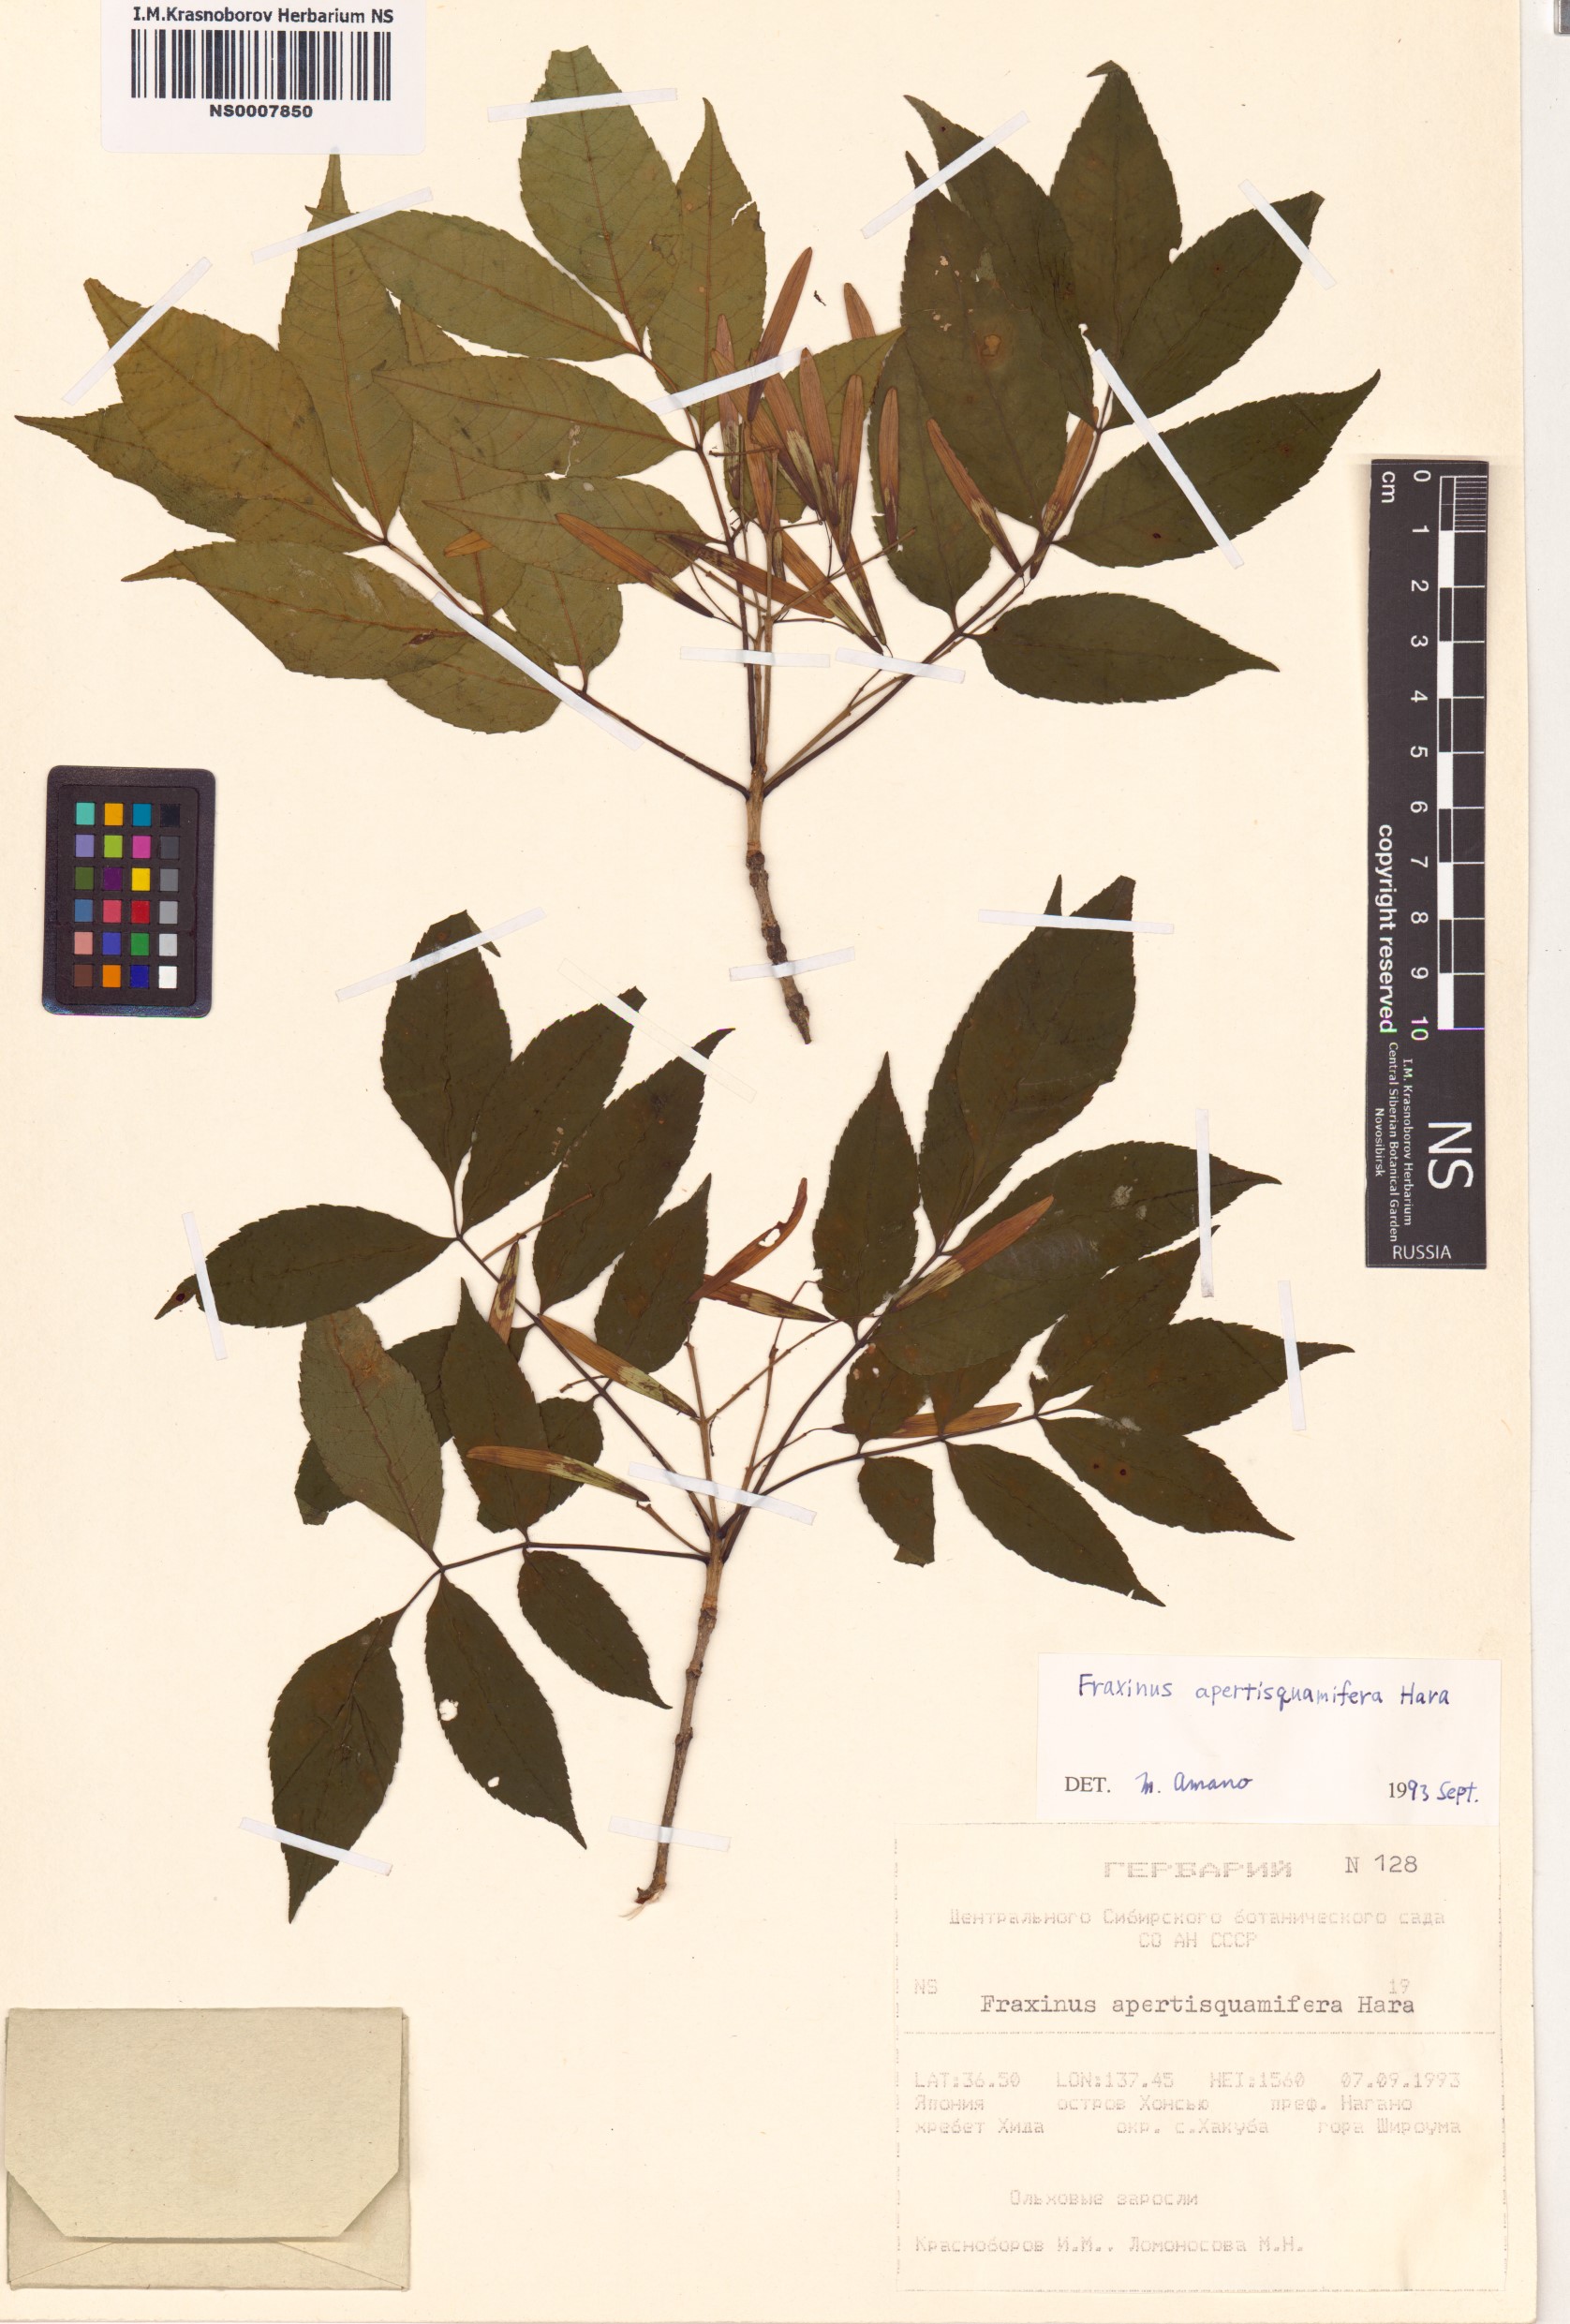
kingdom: Plantae
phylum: Tracheophyta
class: Magnoliopsida
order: Lamiales
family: Oleaceae
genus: Fraxinus
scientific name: Fraxinus apertisquamifera
